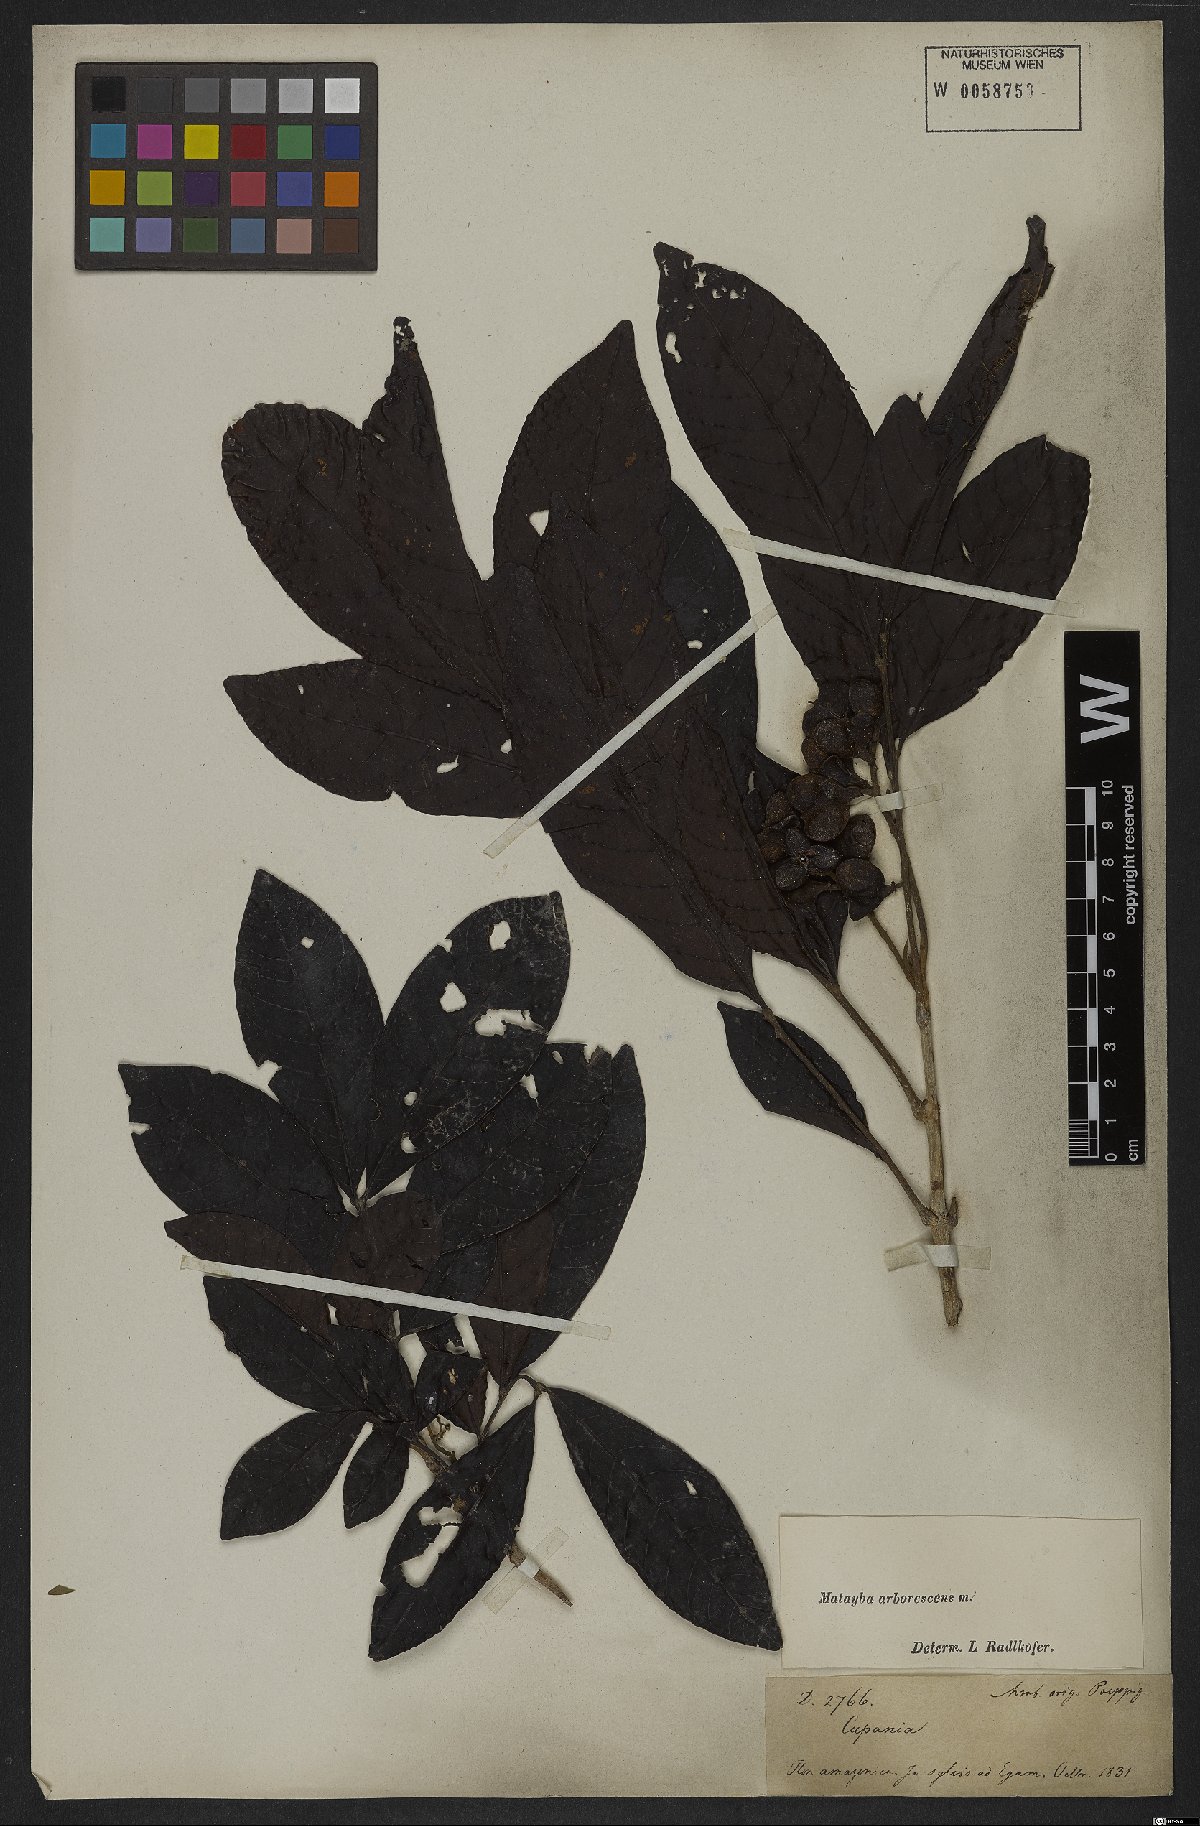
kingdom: Plantae
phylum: Tracheophyta
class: Magnoliopsida
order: Sapindales
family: Sapindaceae
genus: Matayba
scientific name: Matayba arborescens
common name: Arborescent matayba
